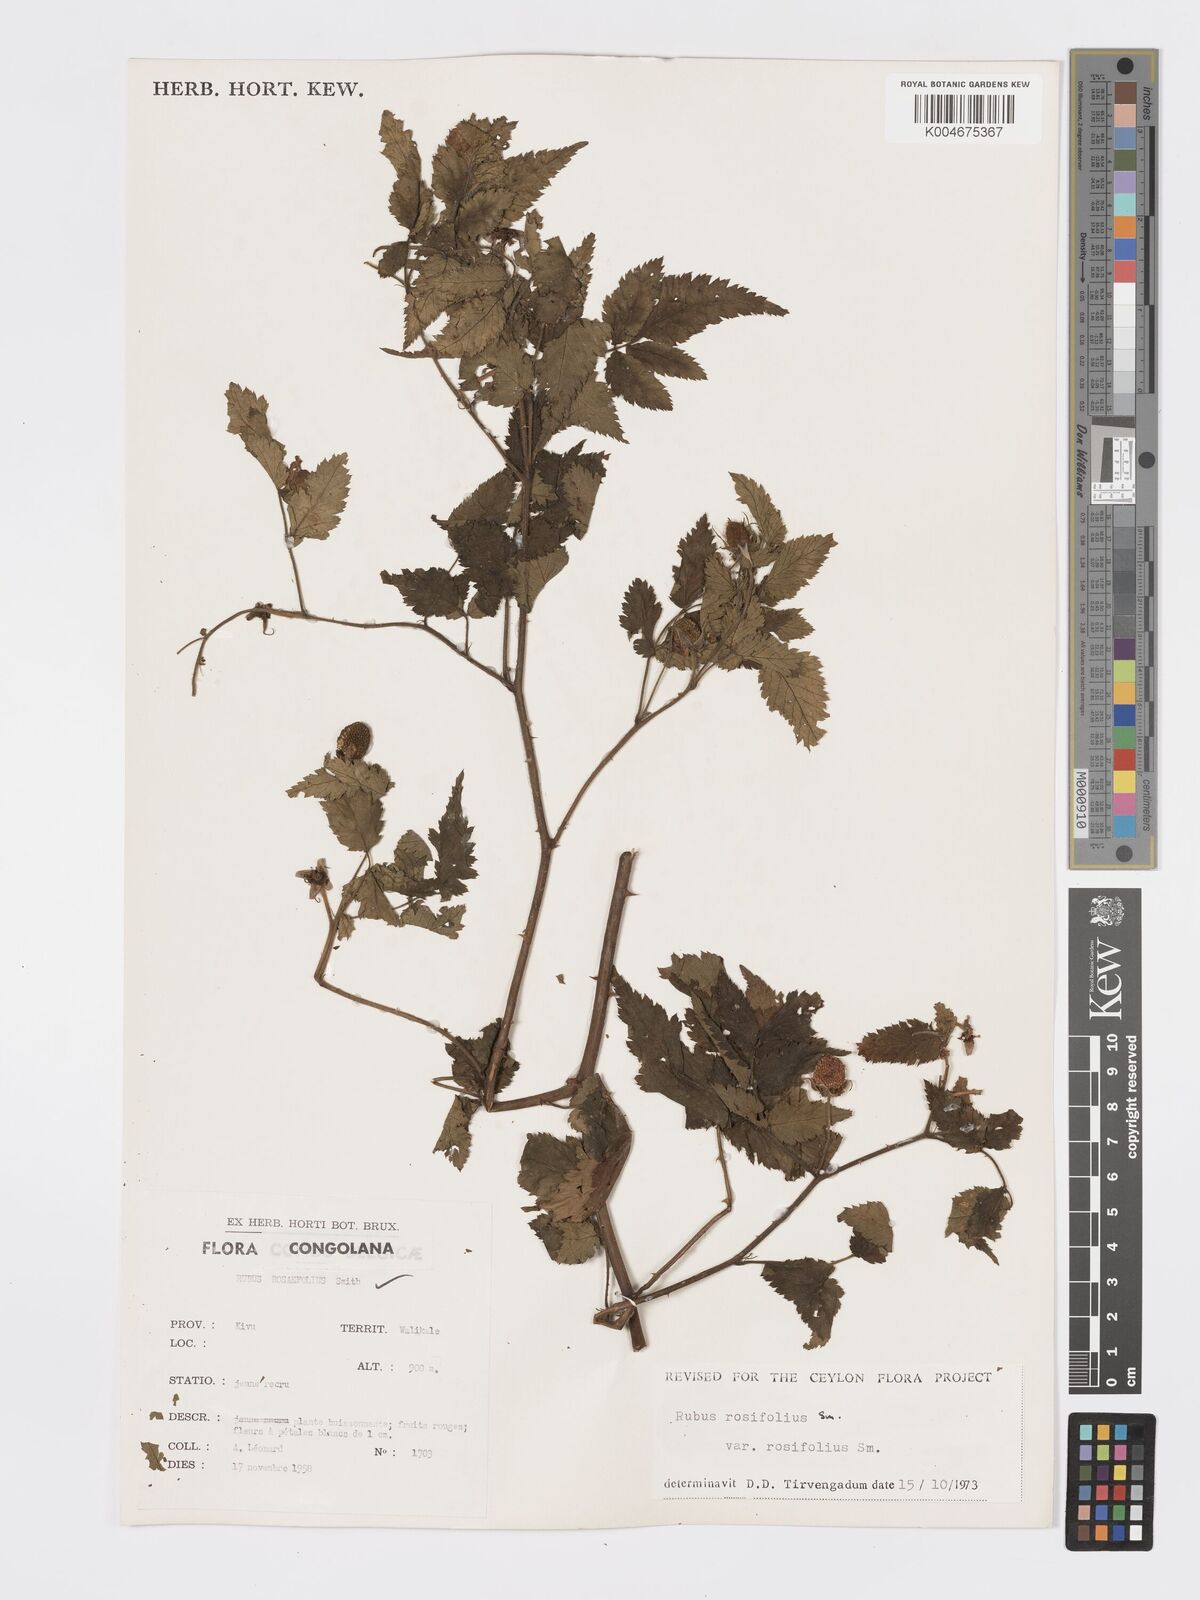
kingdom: Plantae
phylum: Tracheophyta
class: Magnoliopsida
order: Rosales
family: Rosaceae
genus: Rubus
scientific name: Rubus
